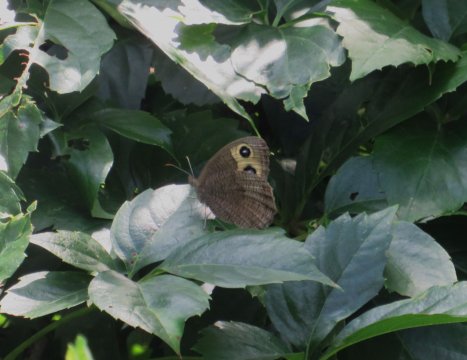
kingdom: Animalia
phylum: Arthropoda
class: Insecta
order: Lepidoptera
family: Nymphalidae
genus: Cercyonis
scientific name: Cercyonis pegala
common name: Common Wood-Nymph
